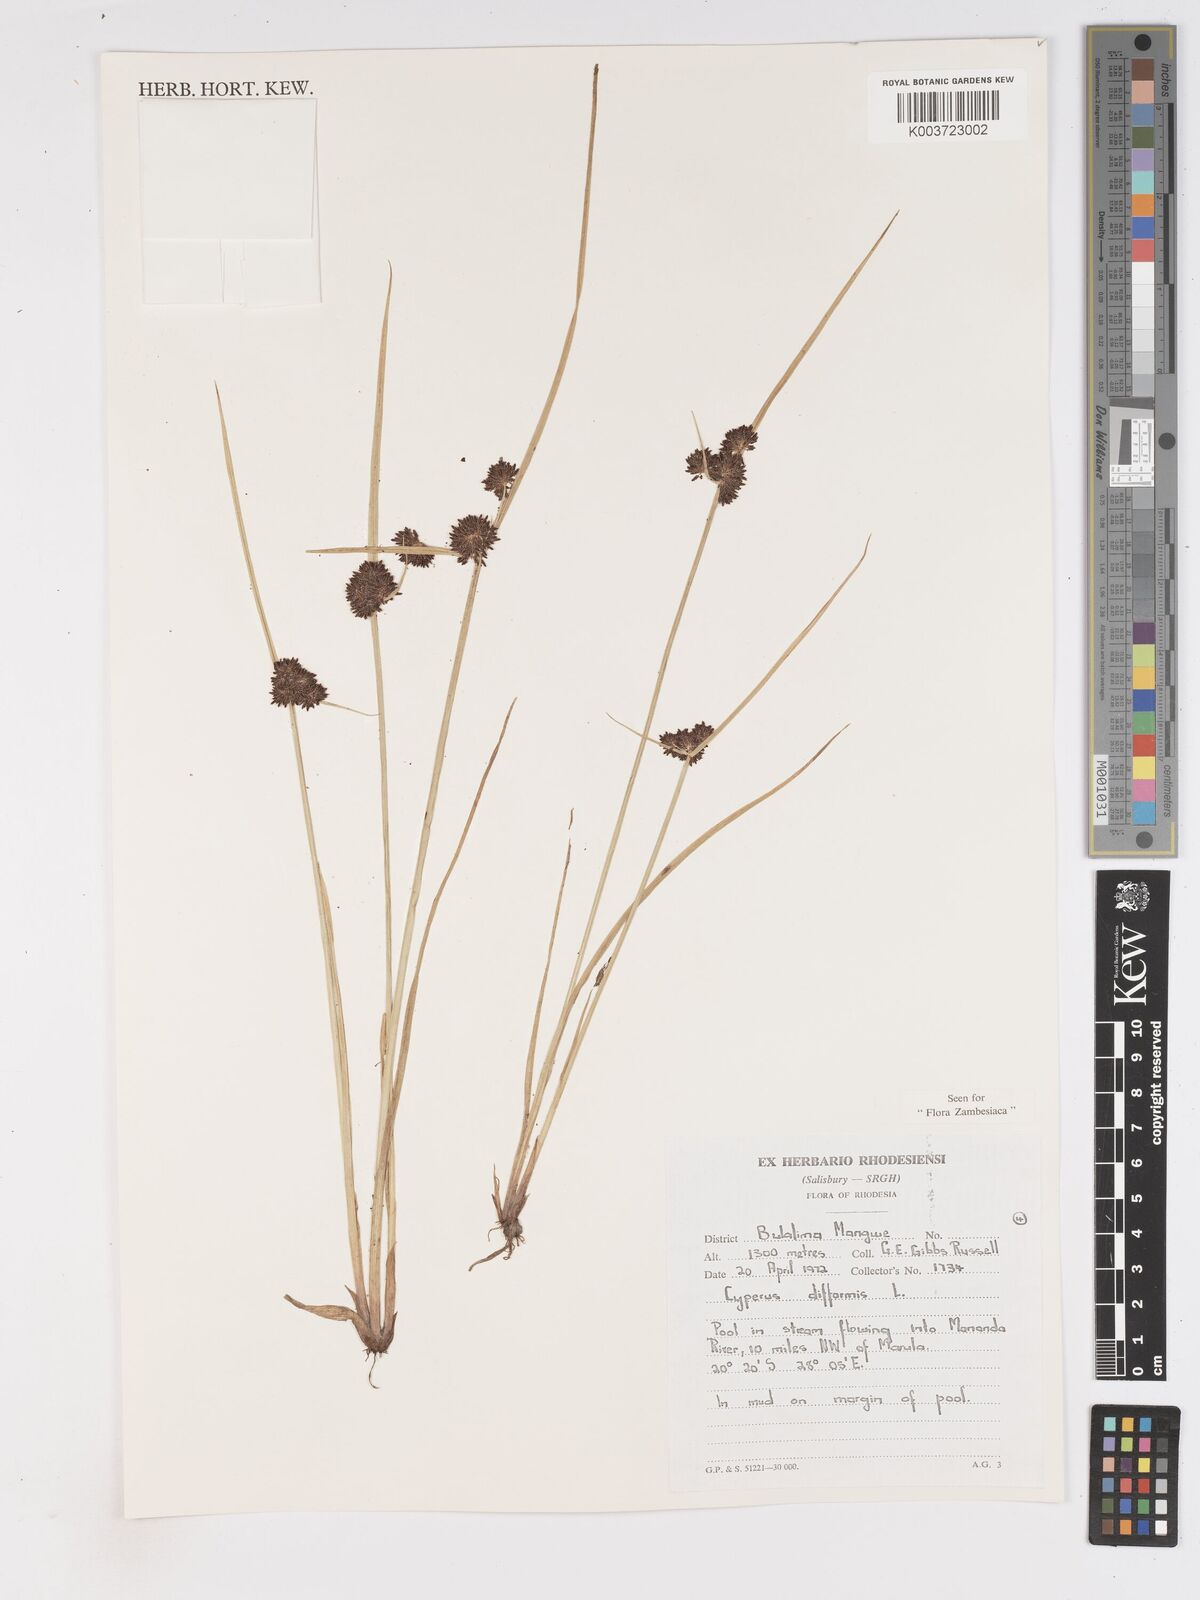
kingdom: Plantae
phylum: Tracheophyta
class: Liliopsida
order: Poales
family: Cyperaceae
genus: Cyperus
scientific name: Cyperus difformis
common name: Variable flatsedge
